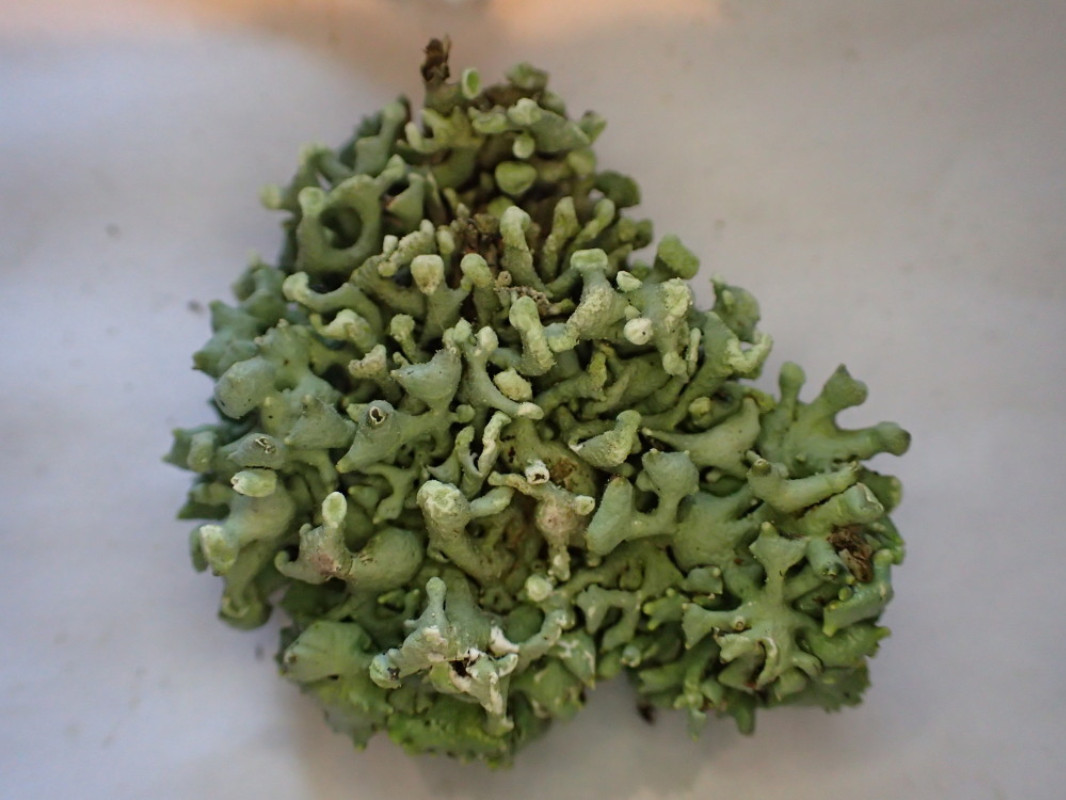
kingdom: Fungi
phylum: Ascomycota
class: Lecanoromycetes
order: Lecanorales
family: Parmeliaceae
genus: Hypogymnia
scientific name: Hypogymnia tubulosa
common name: finger-kvistlav
